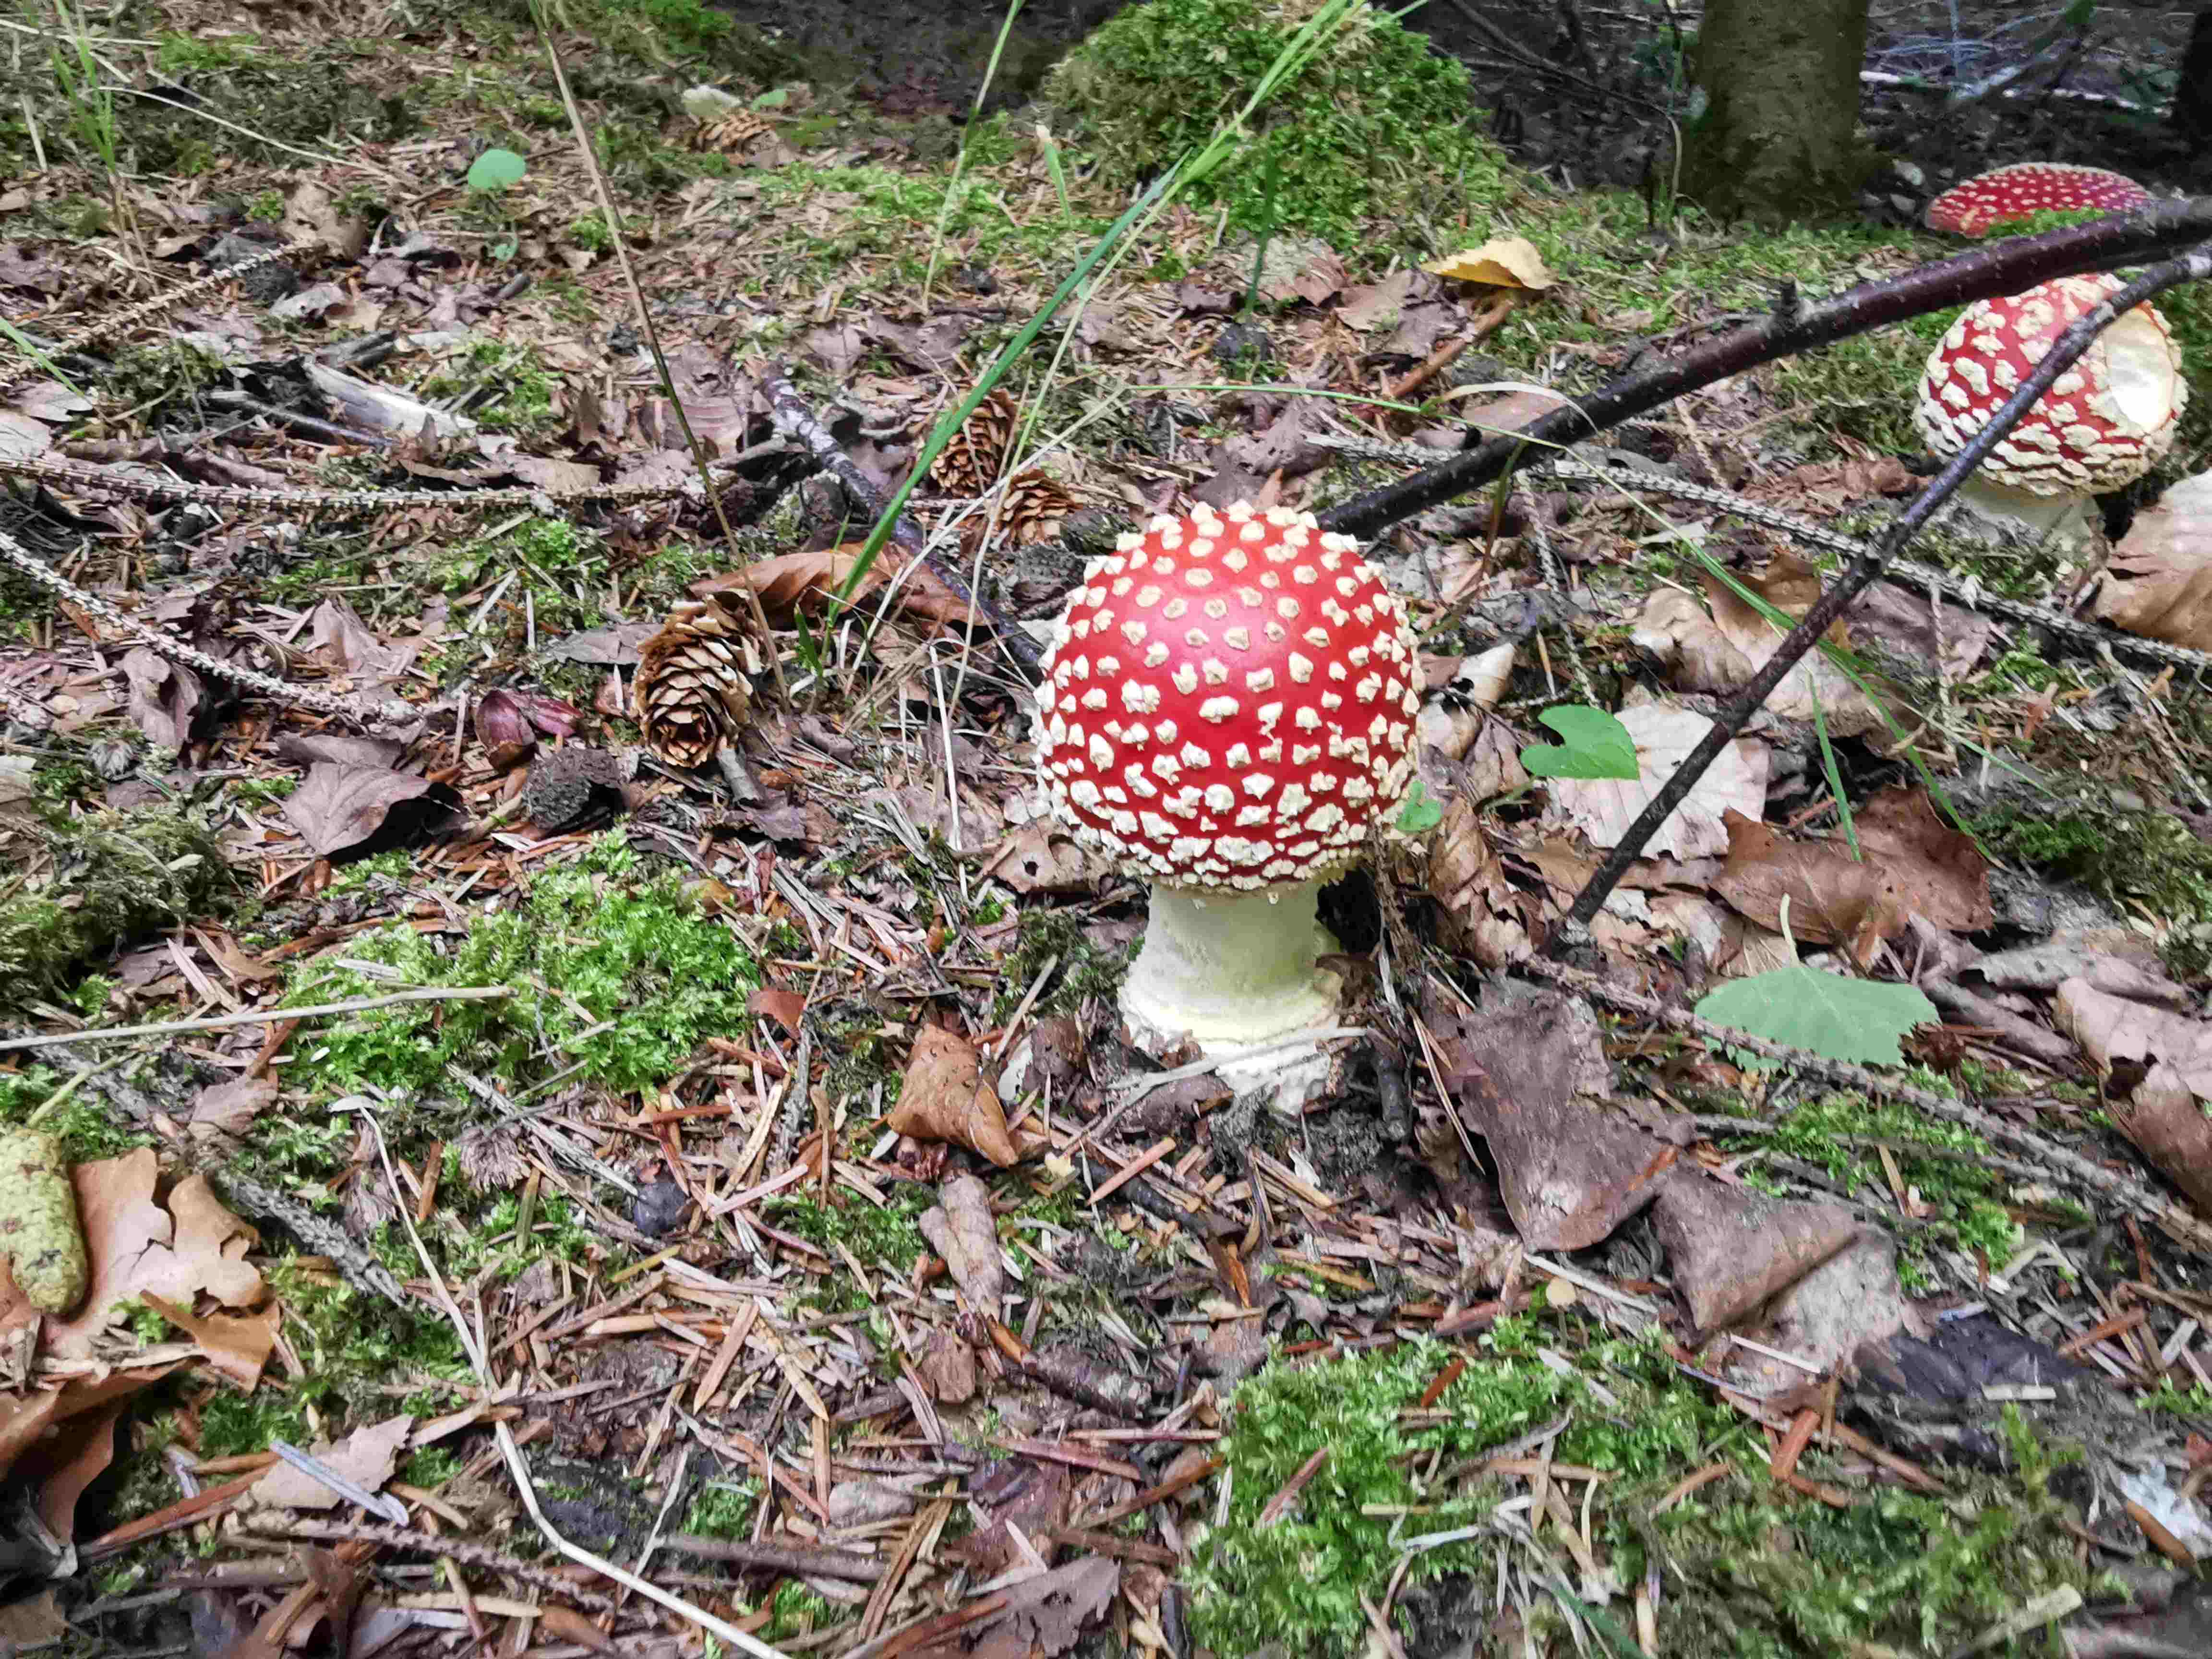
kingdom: Fungi
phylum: Basidiomycota
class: Agaricomycetes
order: Agaricales
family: Amanitaceae
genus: Amanita
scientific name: Amanita muscaria
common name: rød fluesvamp
